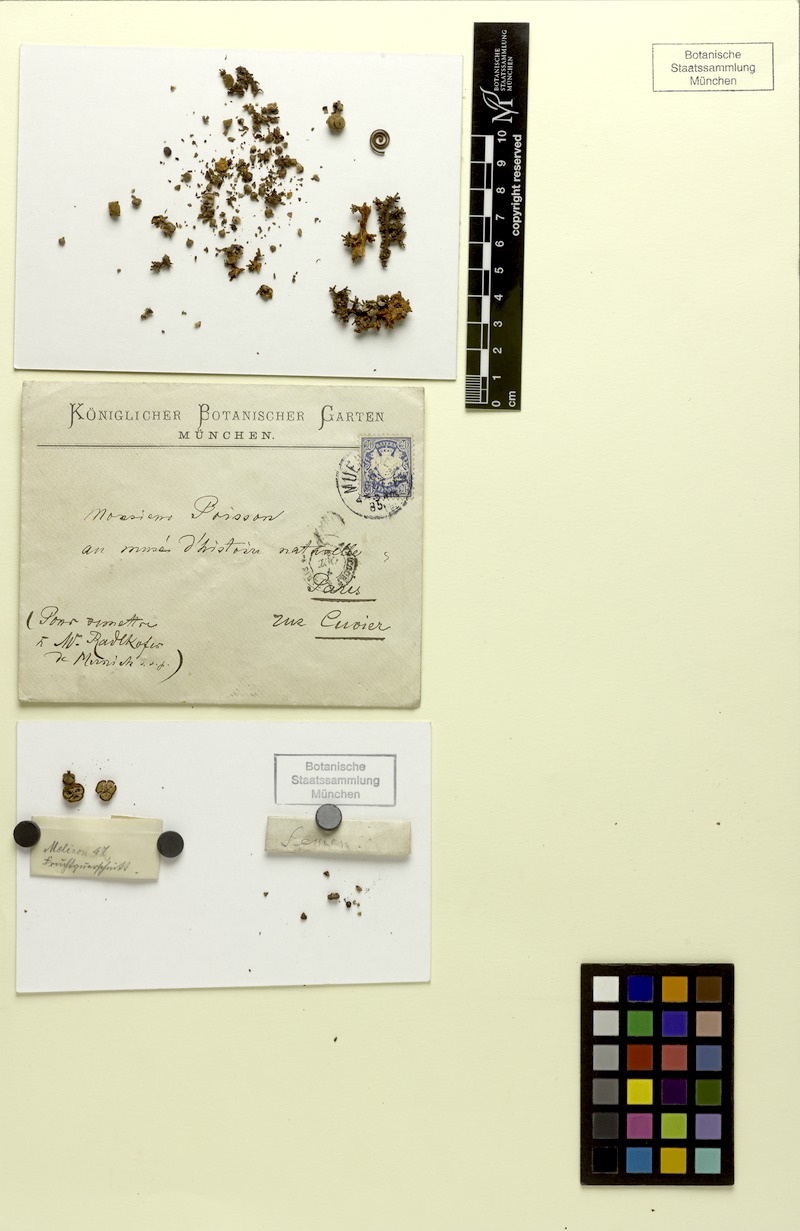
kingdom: Plantae
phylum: Tracheophyta
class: Magnoliopsida
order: Sapindales
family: Sapindaceae
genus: Paullinia
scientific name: Paullinia rugosa
